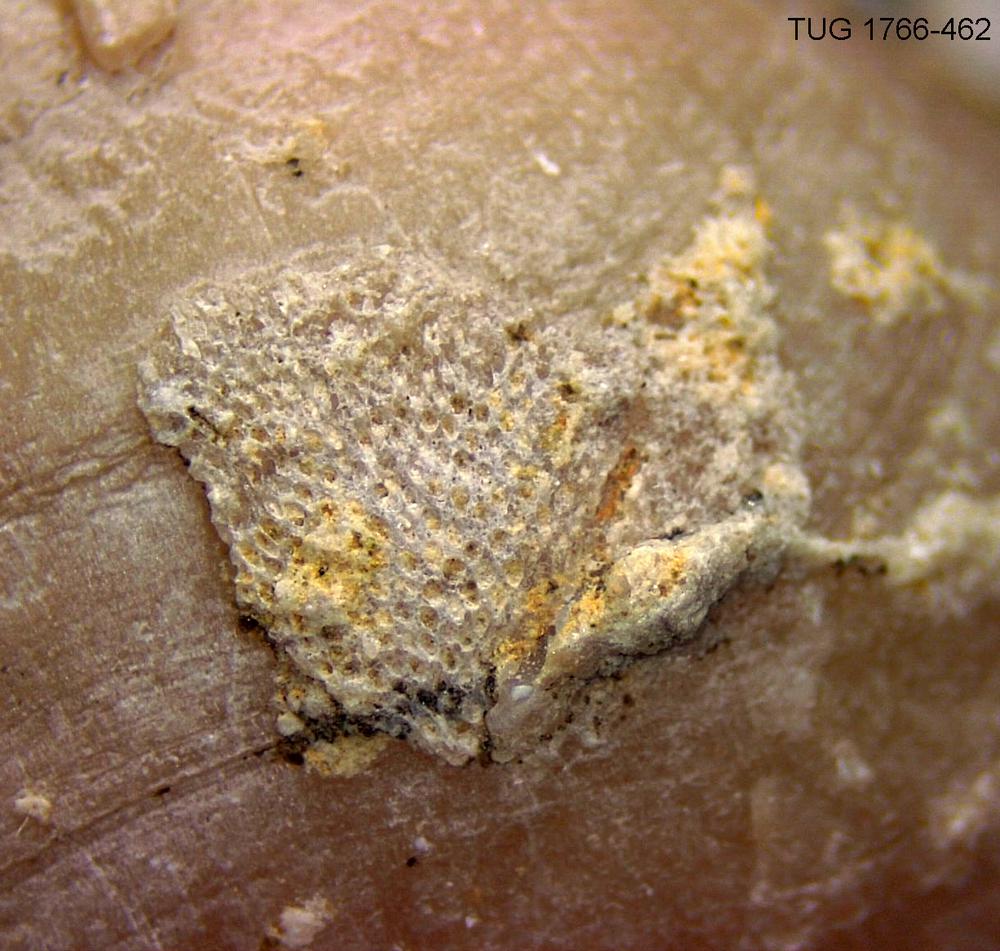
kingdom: Animalia
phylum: Bryozoa
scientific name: Bryozoa
